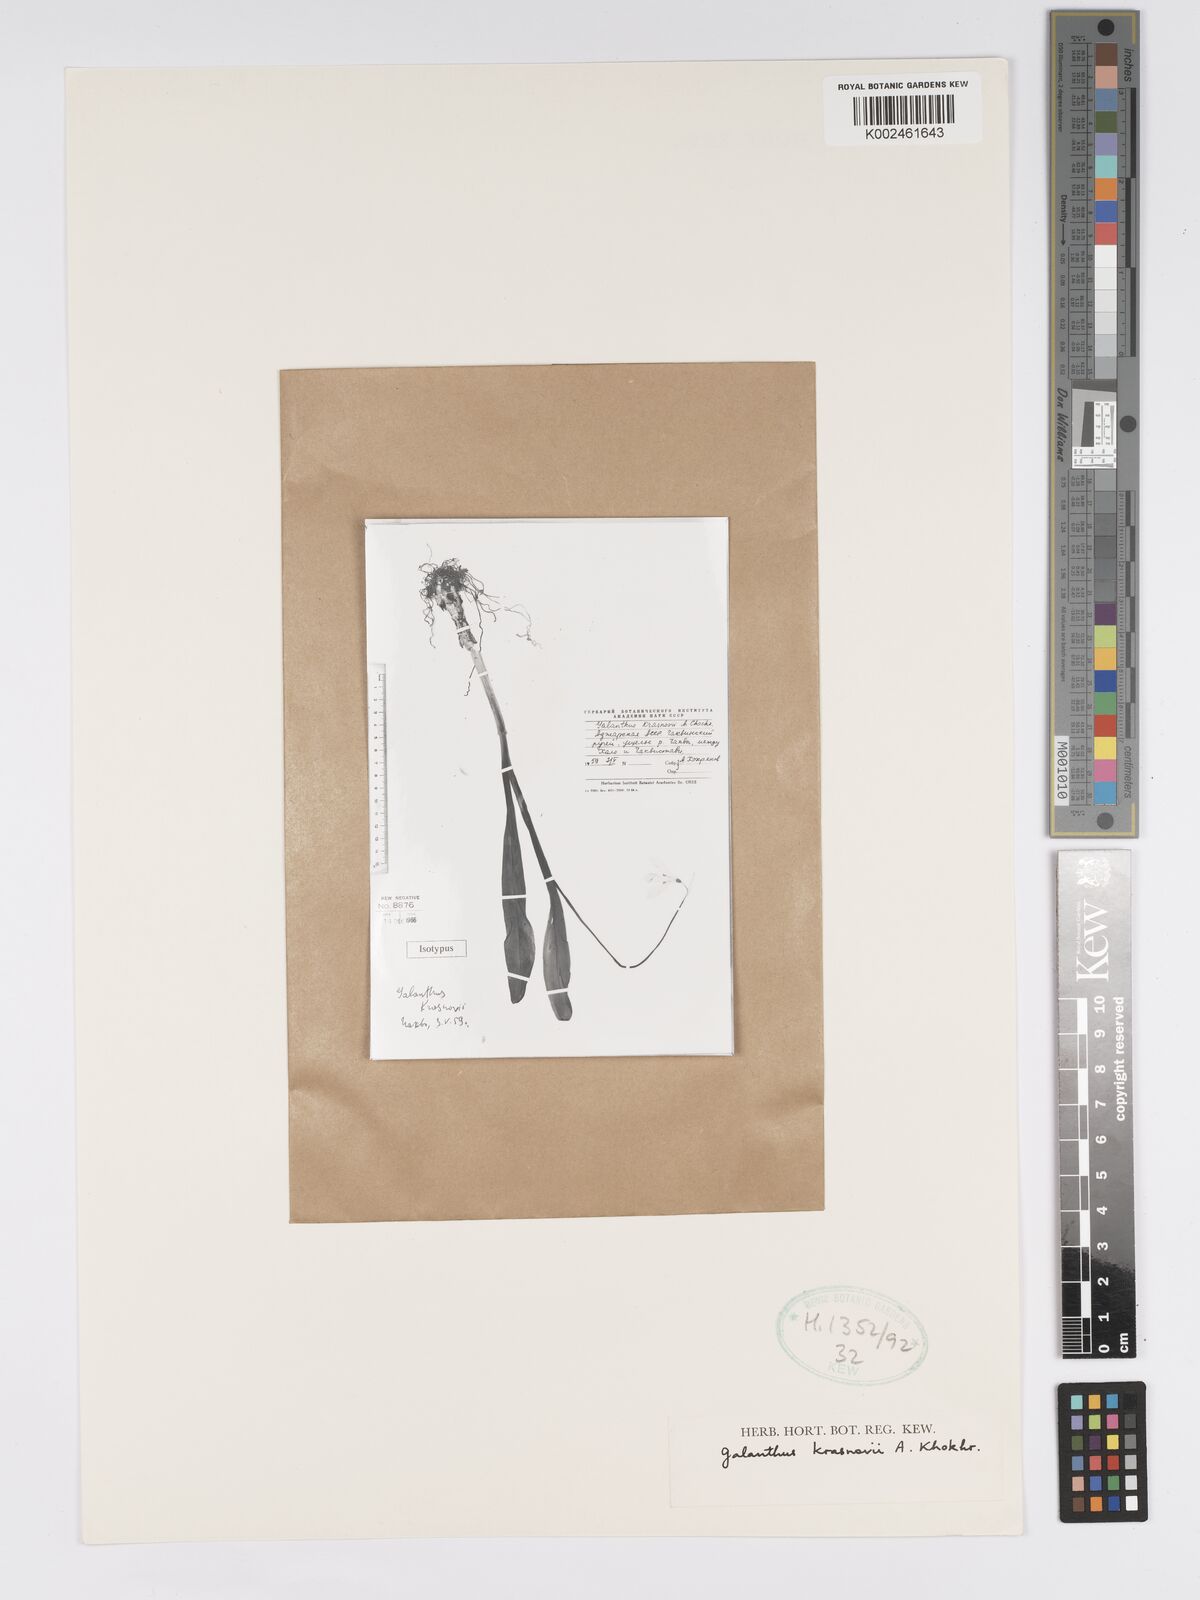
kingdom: Plantae
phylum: Tracheophyta
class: Liliopsida
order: Asparagales
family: Amaryllidaceae
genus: Galanthus
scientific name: Galanthus krasnovii
